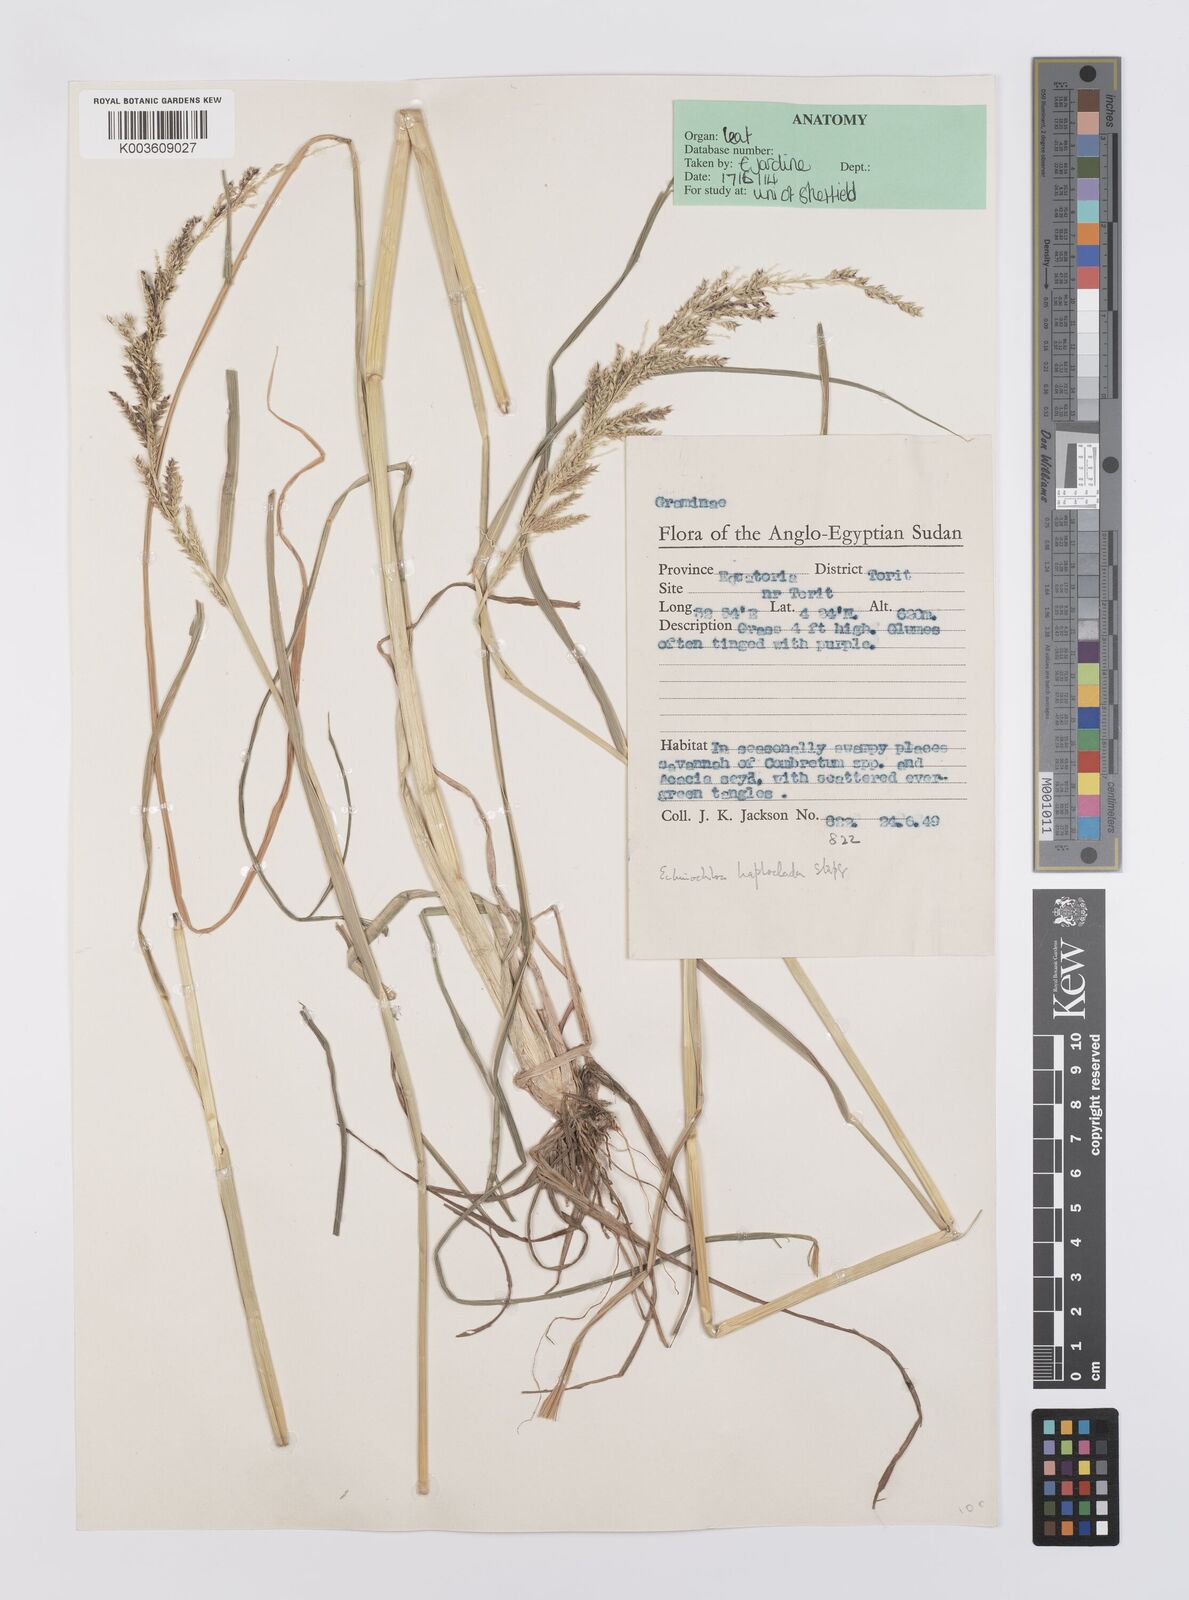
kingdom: Plantae
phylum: Tracheophyta
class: Liliopsida
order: Poales
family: Poaceae
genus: Echinochloa
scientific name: Echinochloa haploclada
